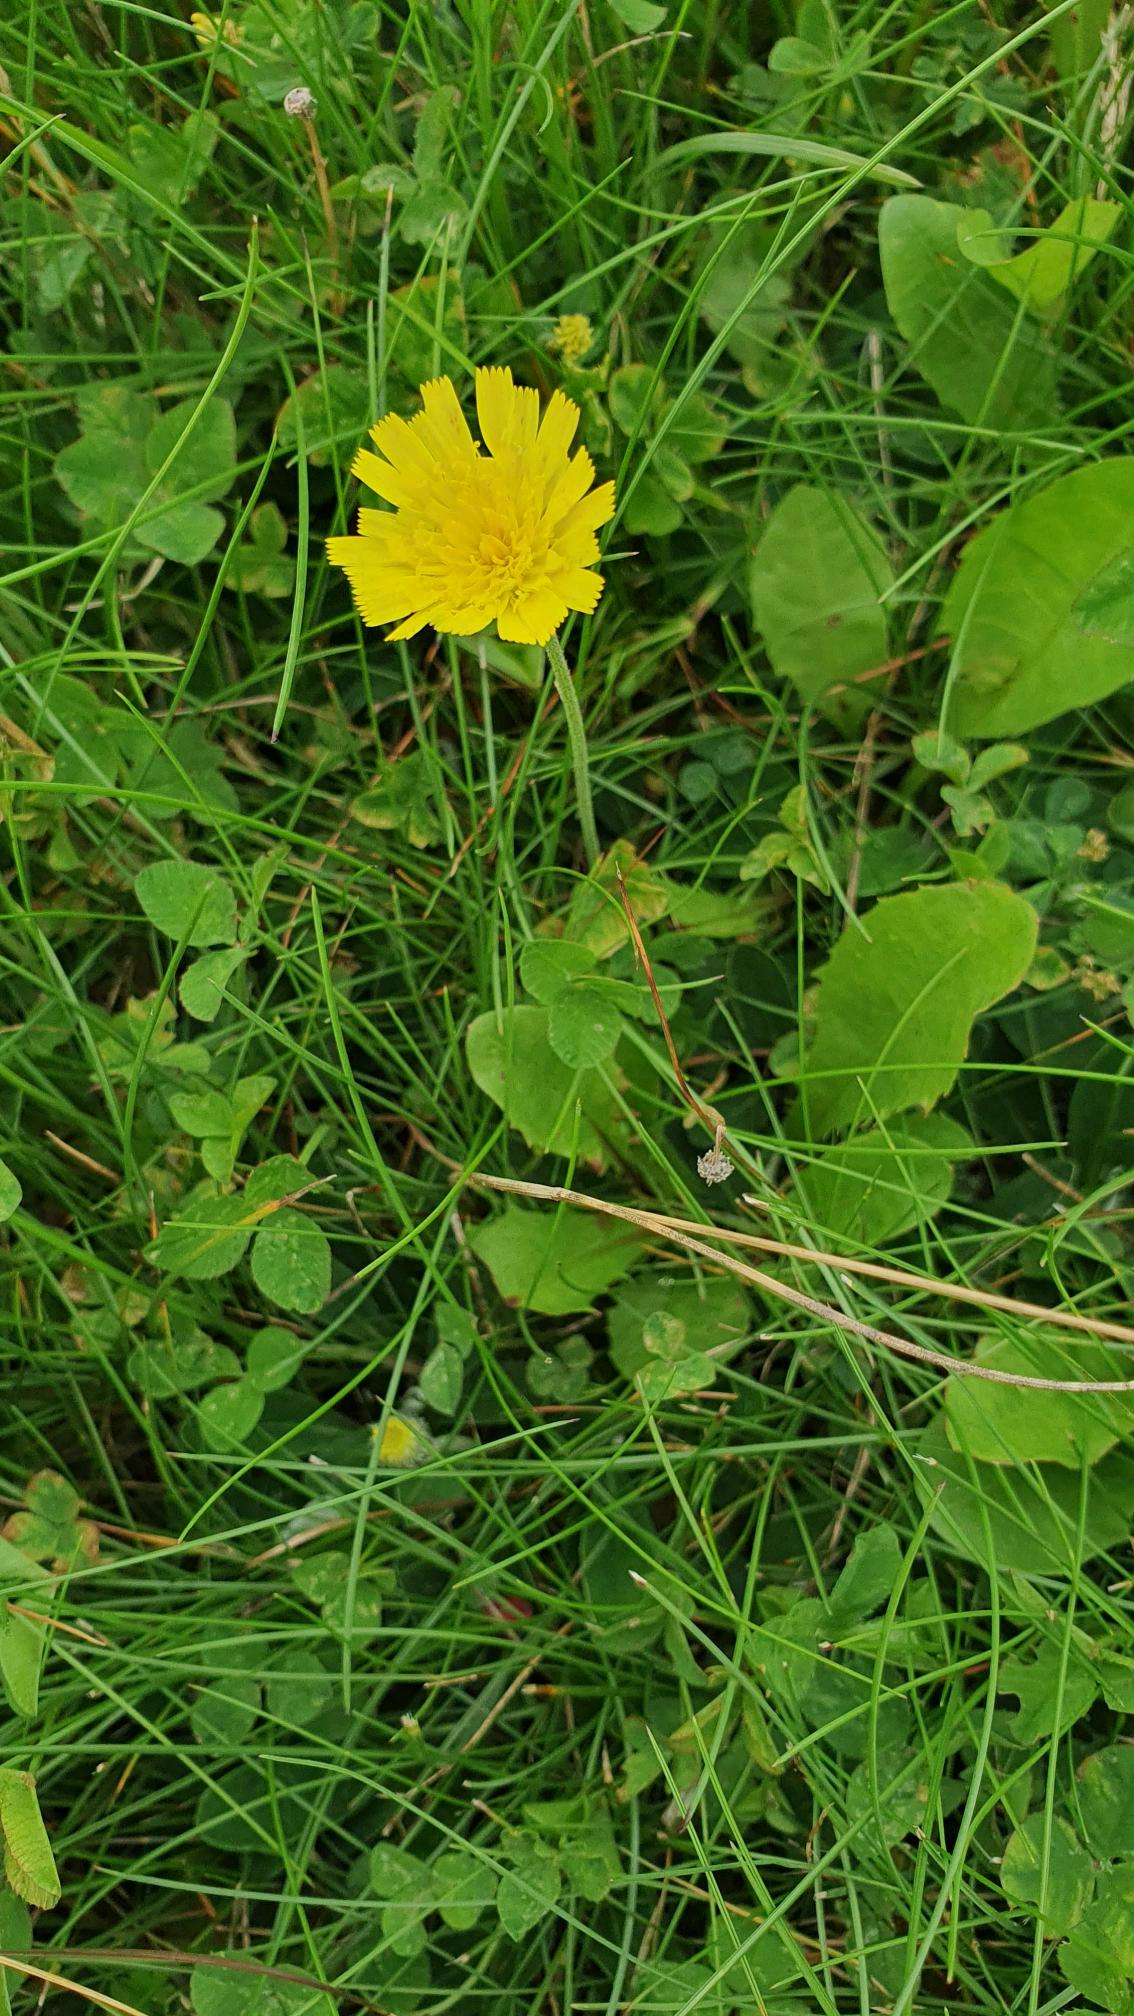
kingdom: Plantae
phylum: Tracheophyta
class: Magnoliopsida
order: Asterales
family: Asteraceae
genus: Pilosella
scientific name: Pilosella officinarum
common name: Håret høgeurt
